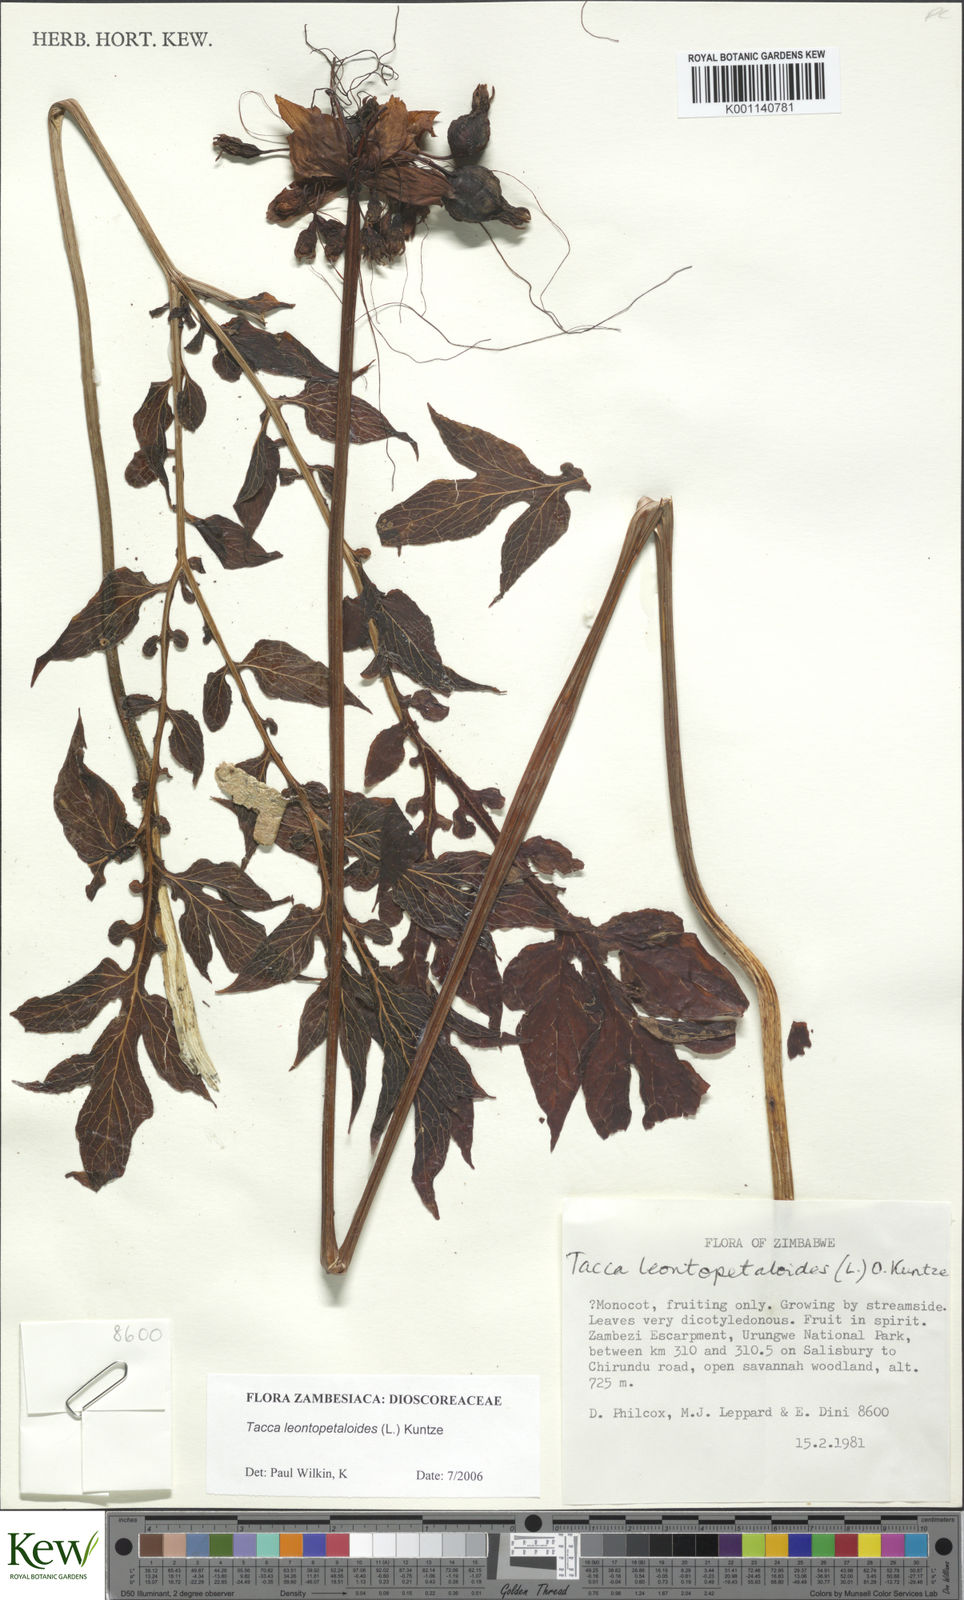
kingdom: Plantae
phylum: Tracheophyta
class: Liliopsida
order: Dioscoreales
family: Dioscoreaceae
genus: Tacca
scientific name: Tacca leontopetaloides
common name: Arrowroot
